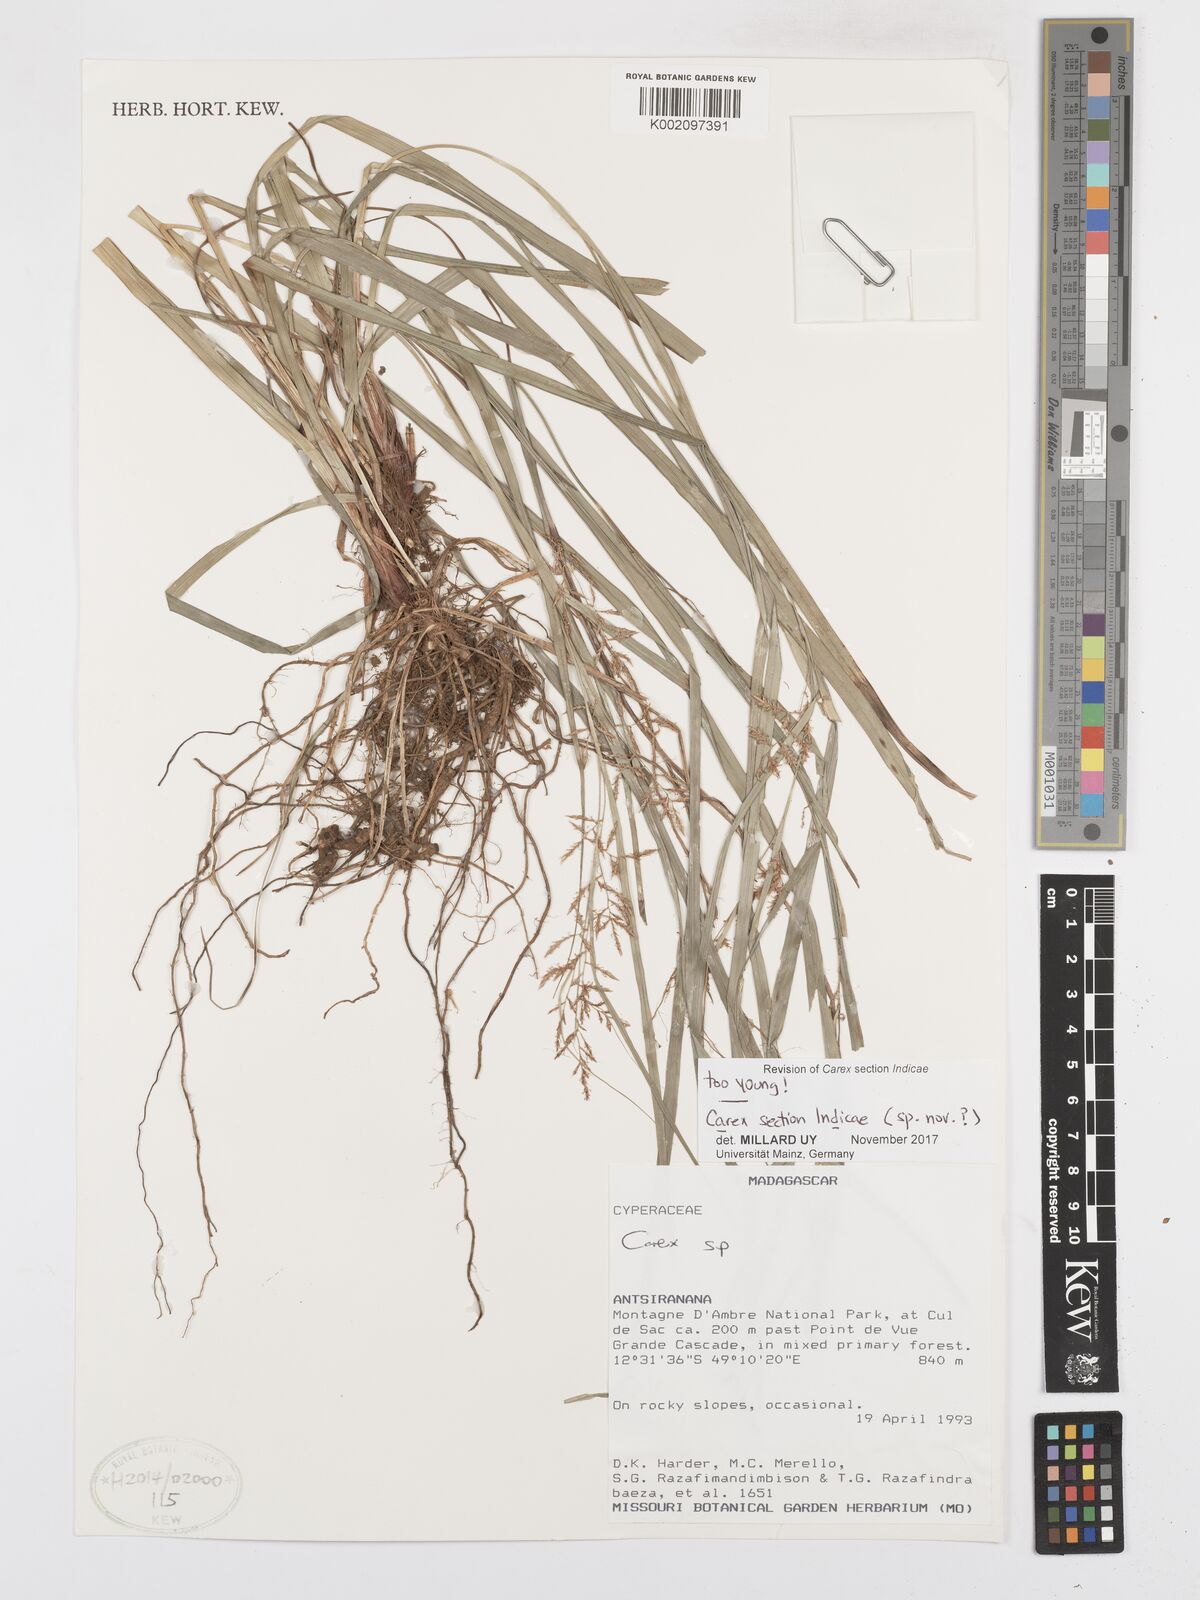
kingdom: Plantae
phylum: Tracheophyta
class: Liliopsida
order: Poales
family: Cyperaceae
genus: Carex
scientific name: Carex
